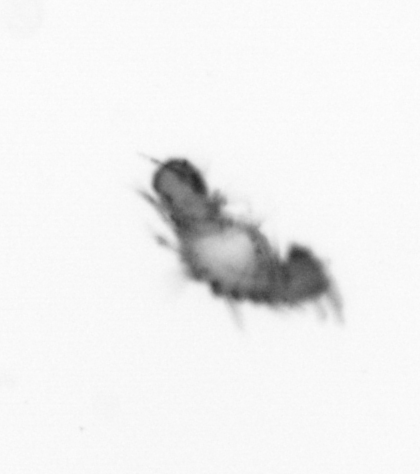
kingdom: Animalia
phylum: Annelida
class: Polychaeta
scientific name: Polychaeta
